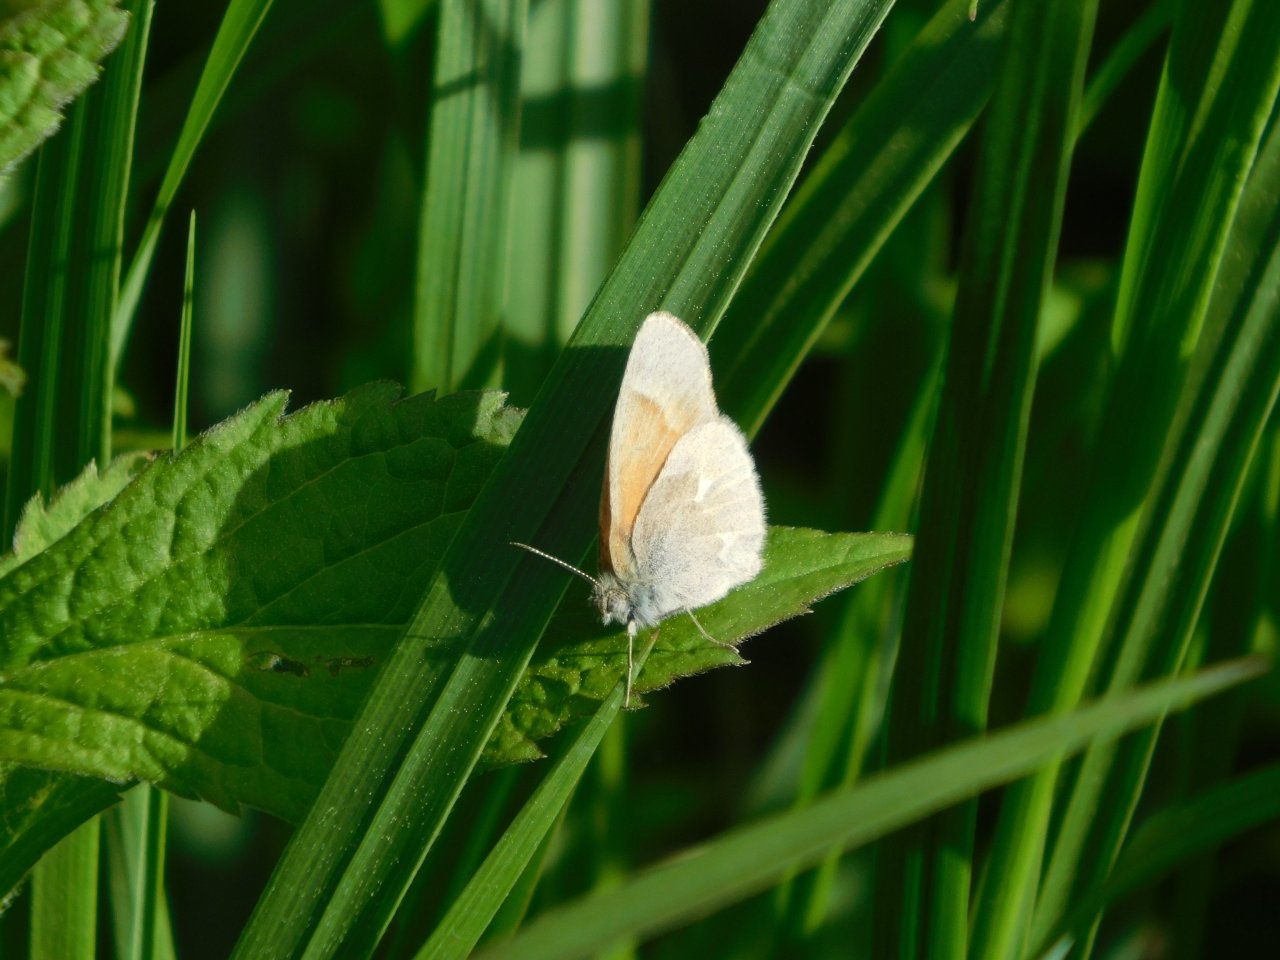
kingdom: Animalia
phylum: Arthropoda
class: Insecta
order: Lepidoptera
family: Nymphalidae
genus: Coenonympha
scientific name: Coenonympha tullia
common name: Large Heath
